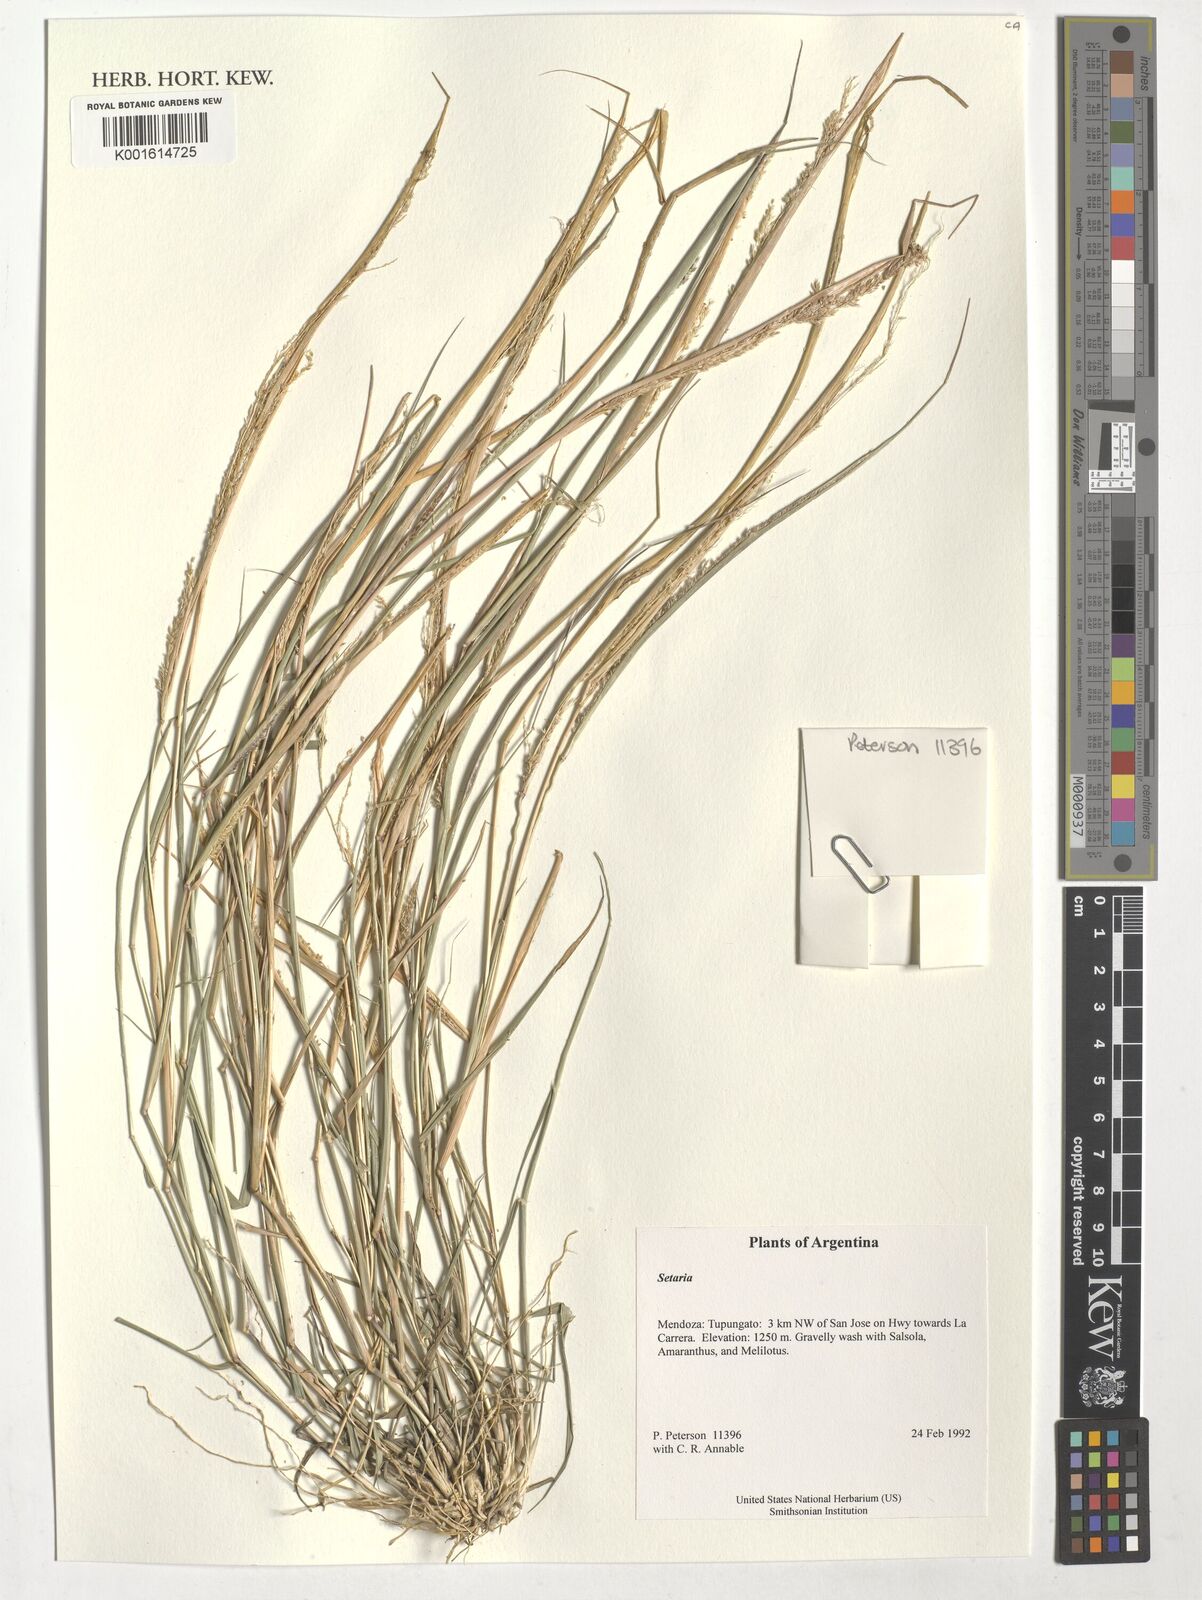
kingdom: Plantae
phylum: Tracheophyta
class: Liliopsida
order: Poales
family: Poaceae
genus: Setaria
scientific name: Setaria
